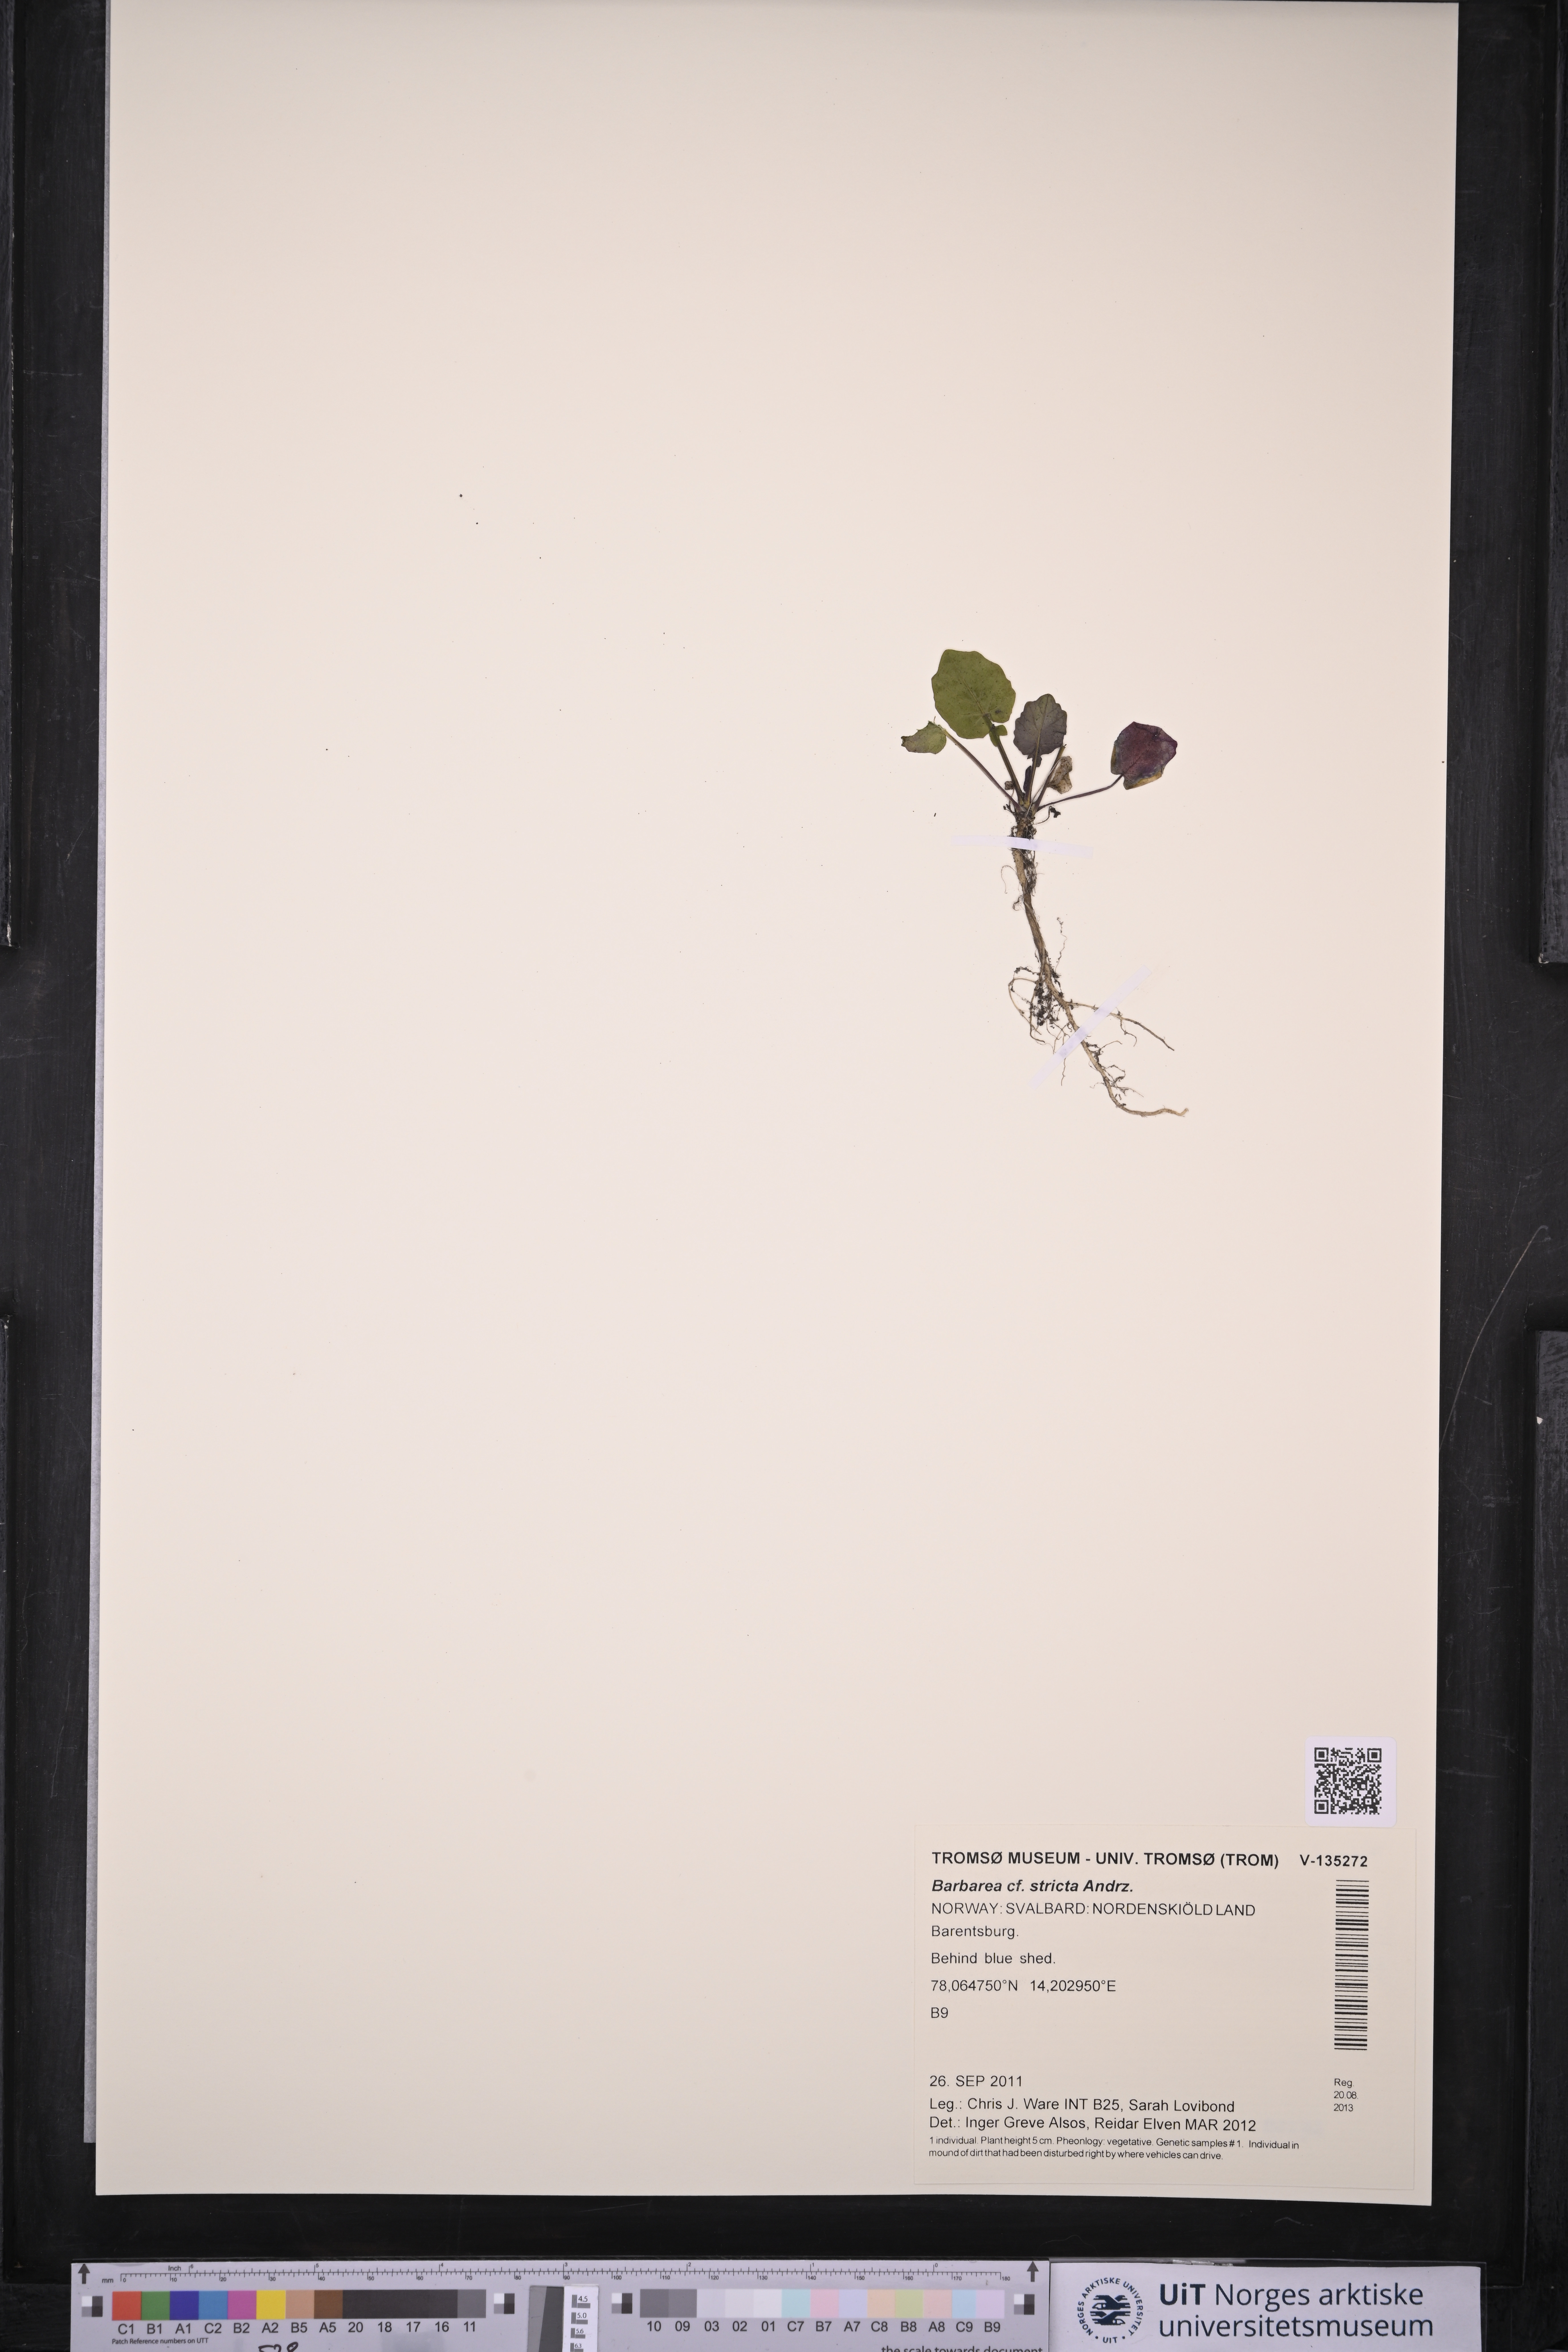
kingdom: Plantae
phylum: Tracheophyta
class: Magnoliopsida
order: Brassicales
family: Brassicaceae
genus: Barbarea
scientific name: Barbarea stricta
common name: Small-flowered winter-cress
